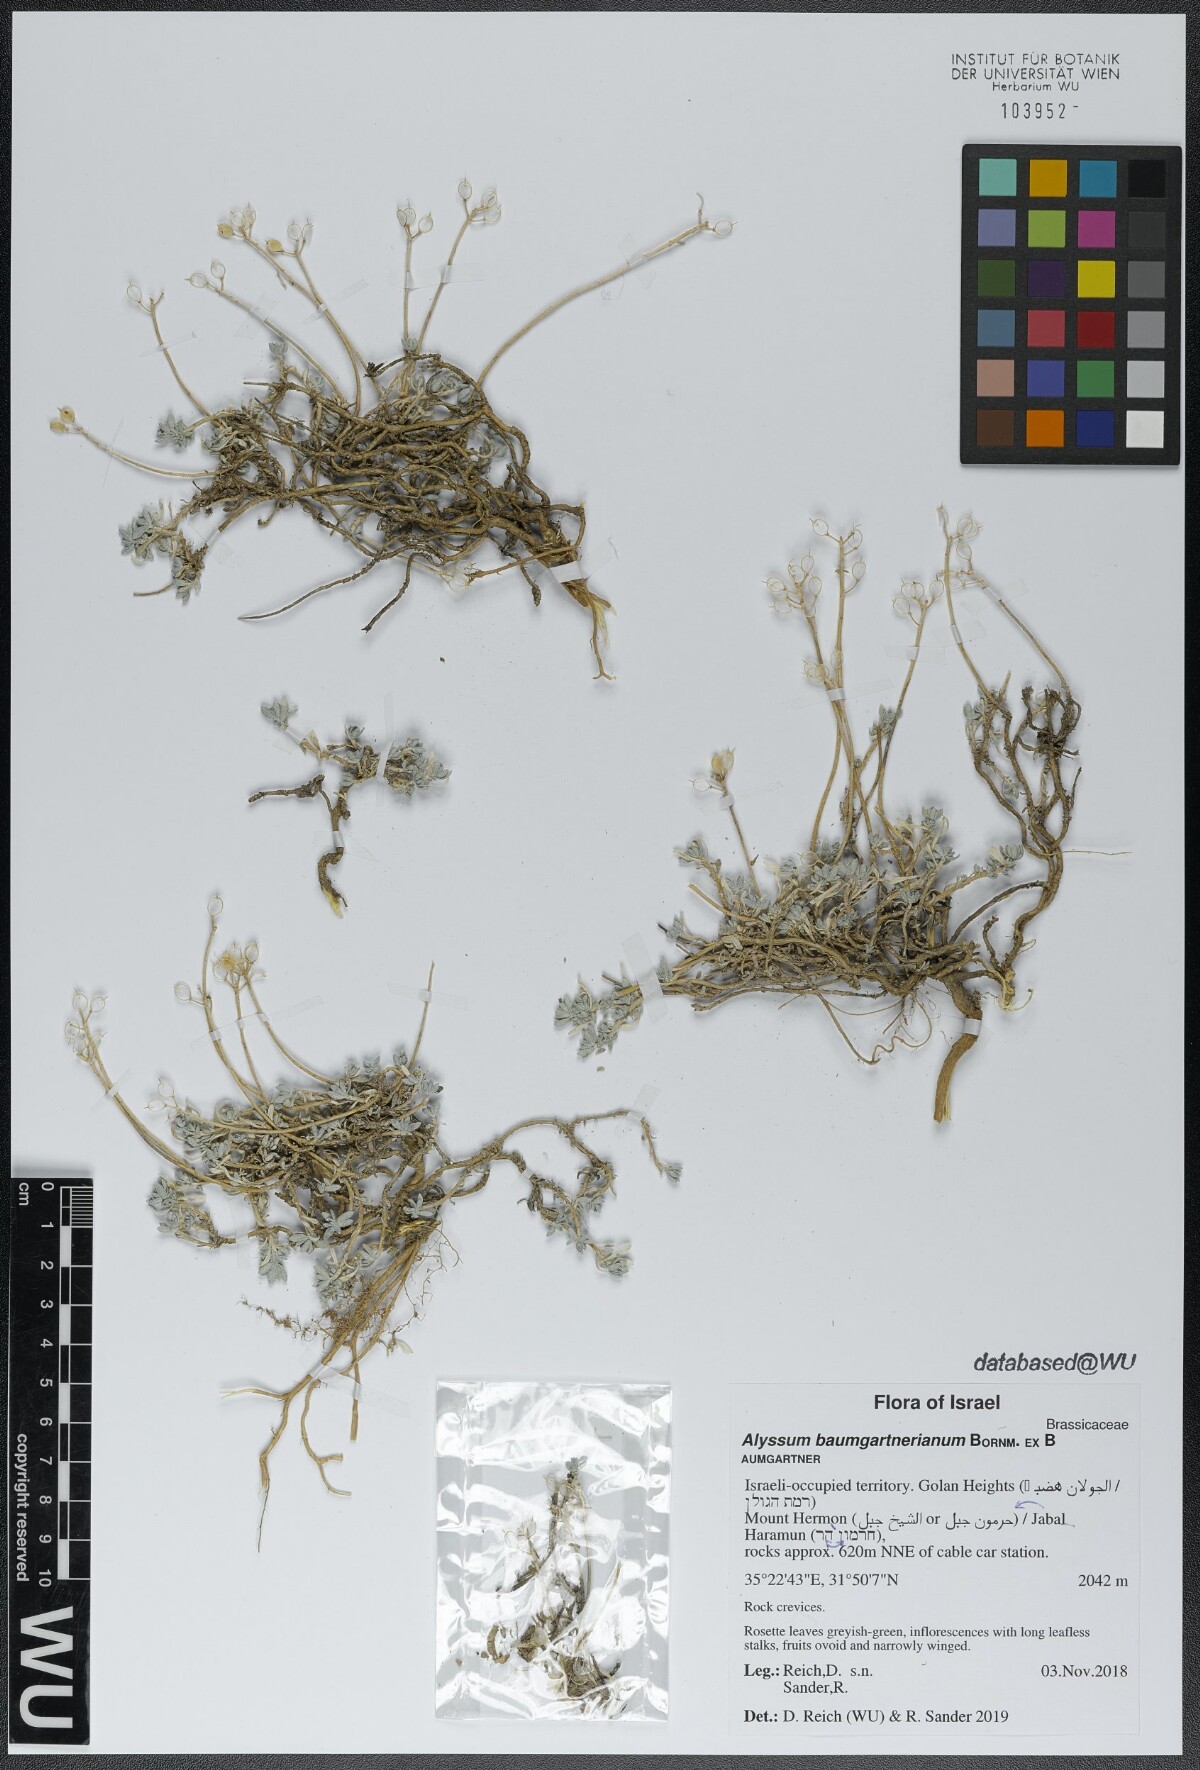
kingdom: Plantae
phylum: Tracheophyta
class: Magnoliopsida
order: Brassicales
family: Brassicaceae
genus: Alyssum
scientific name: Alyssum baumgartnerianum
